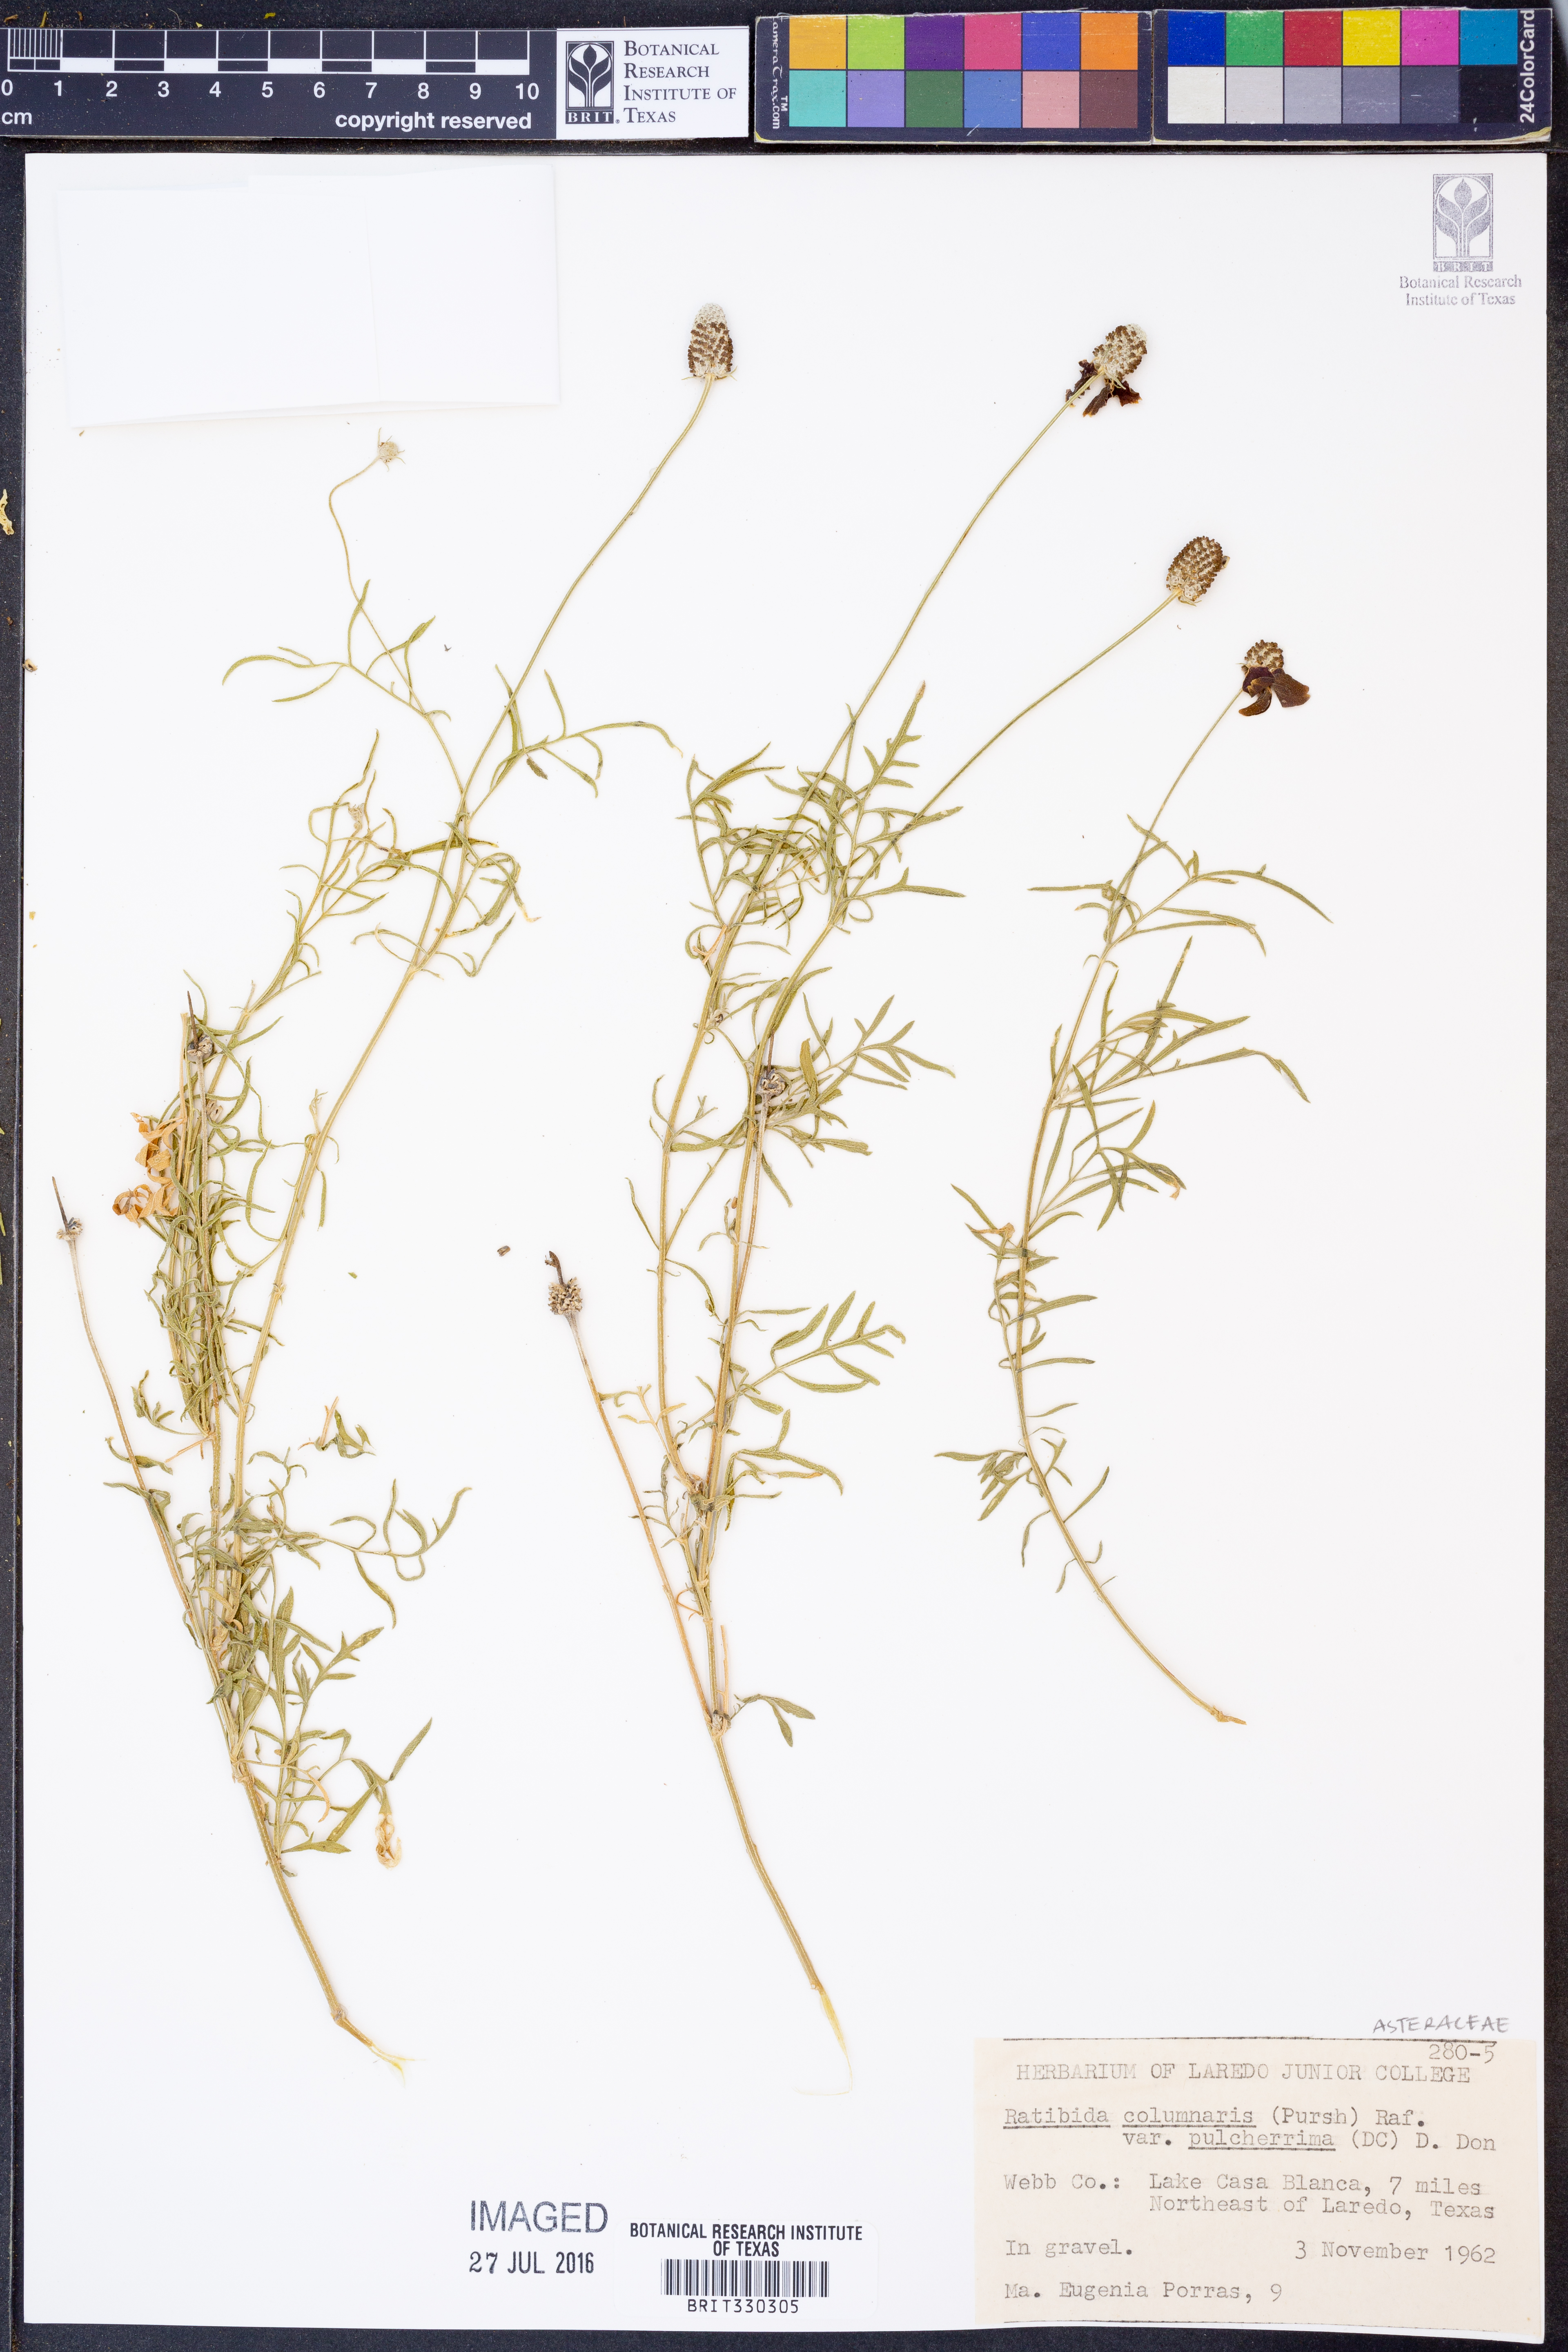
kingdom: Plantae
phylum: Tracheophyta
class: Magnoliopsida
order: Asterales
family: Asteraceae
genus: Ratibida
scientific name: Ratibida columnifera
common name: Prairie coneflower
